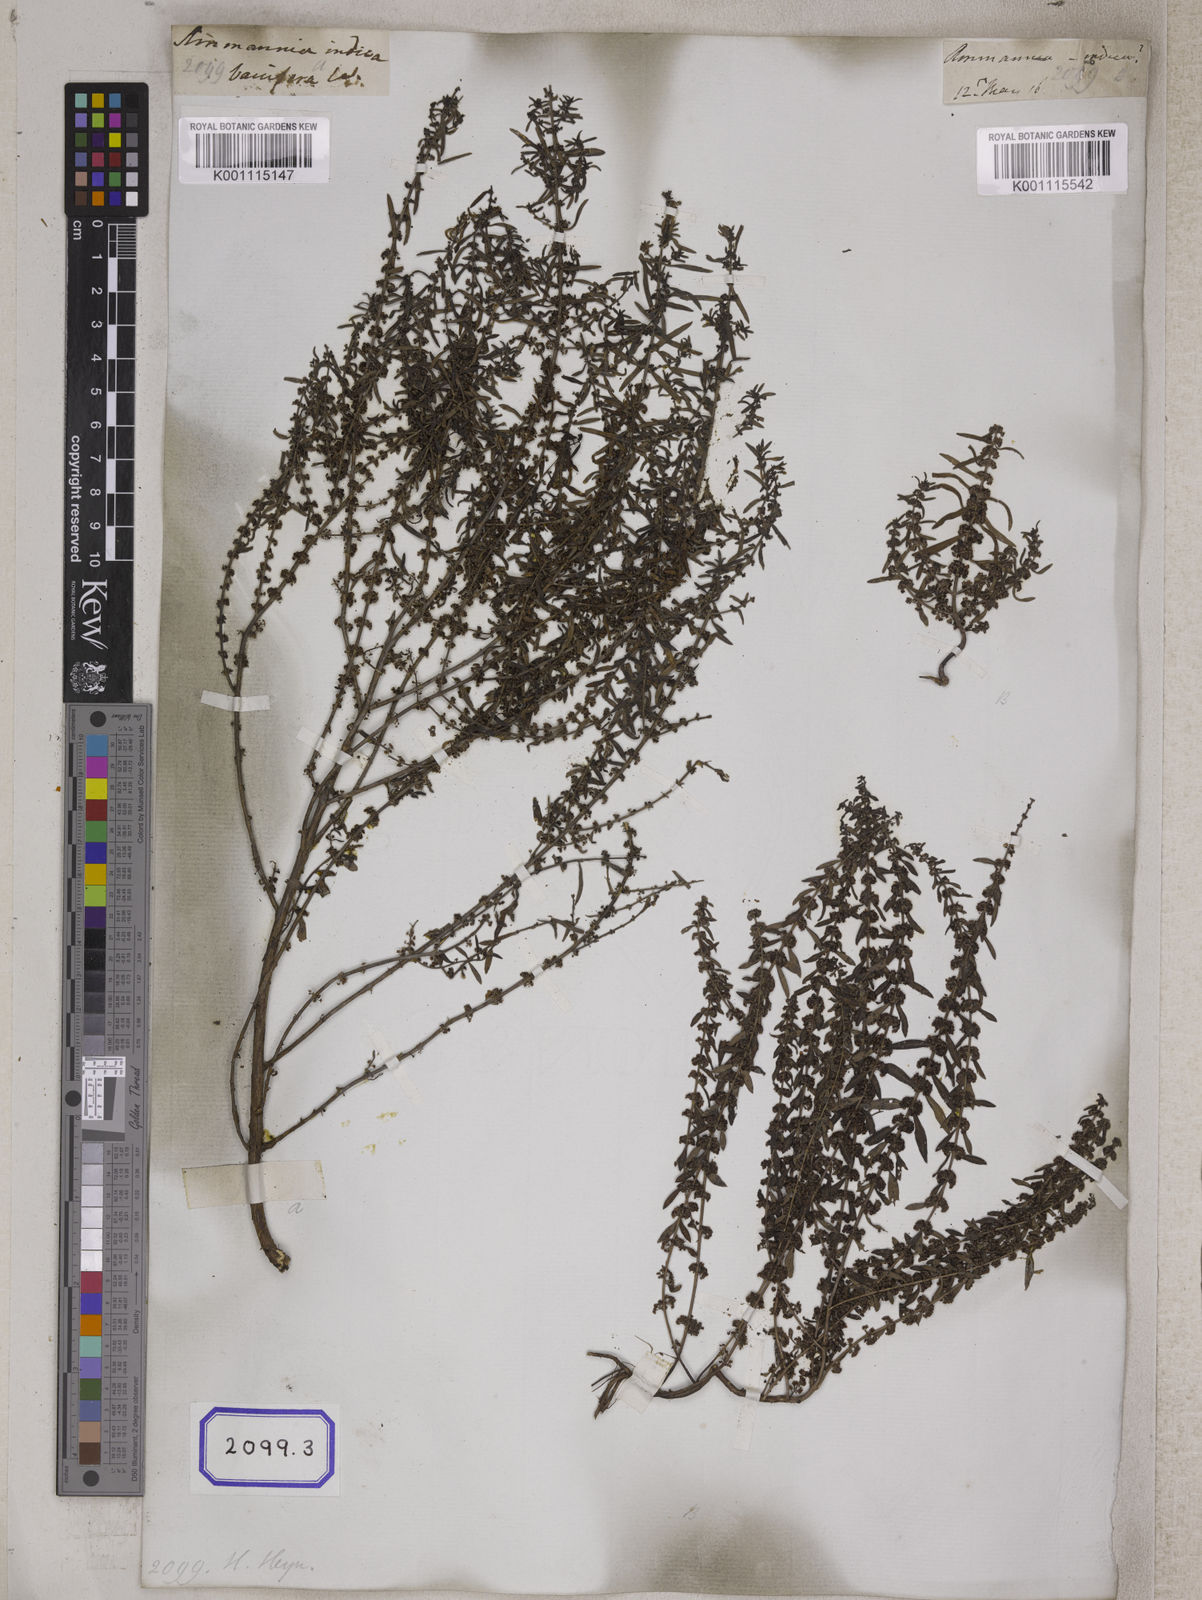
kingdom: Plantae
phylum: Tracheophyta
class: Magnoliopsida
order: Myrtales
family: Lythraceae
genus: Ammannia
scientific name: Ammannia baccifera
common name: Blistering ammania
